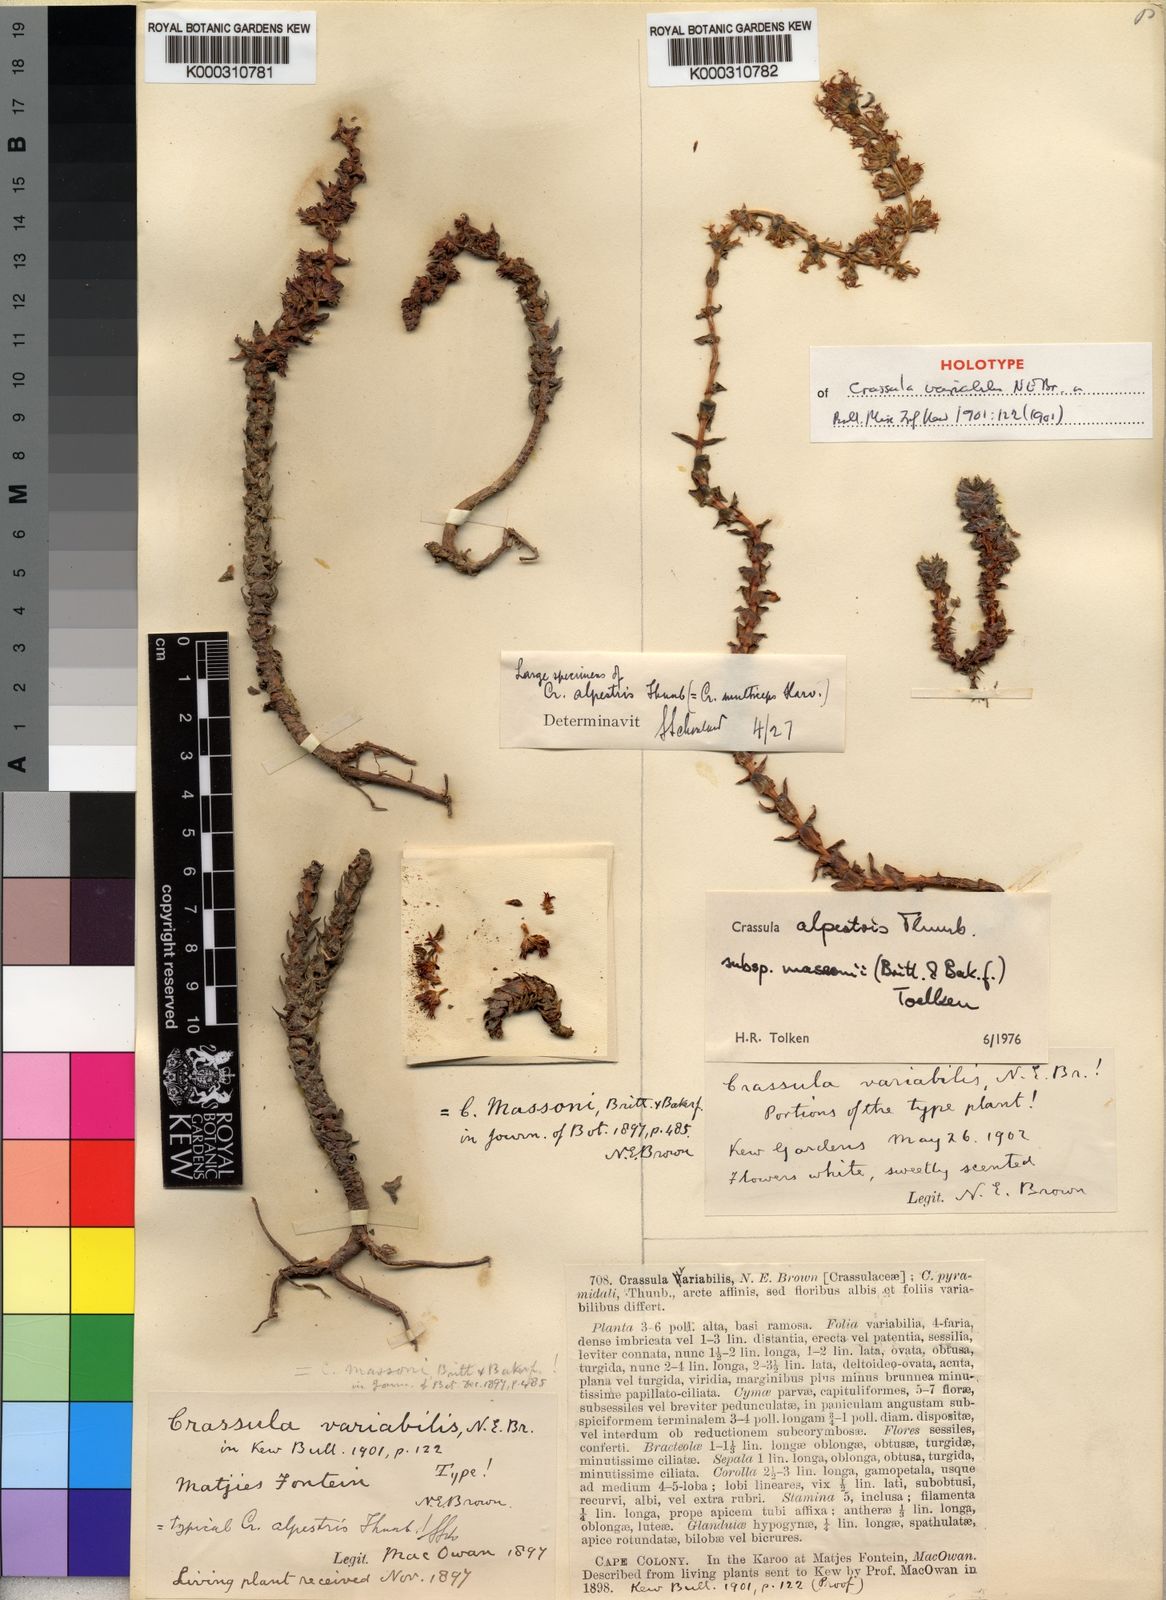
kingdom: Plantae
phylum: Tracheophyta
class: Magnoliopsida
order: Saxifragales
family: Crassulaceae
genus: Crassula
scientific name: Crassula alpestris
